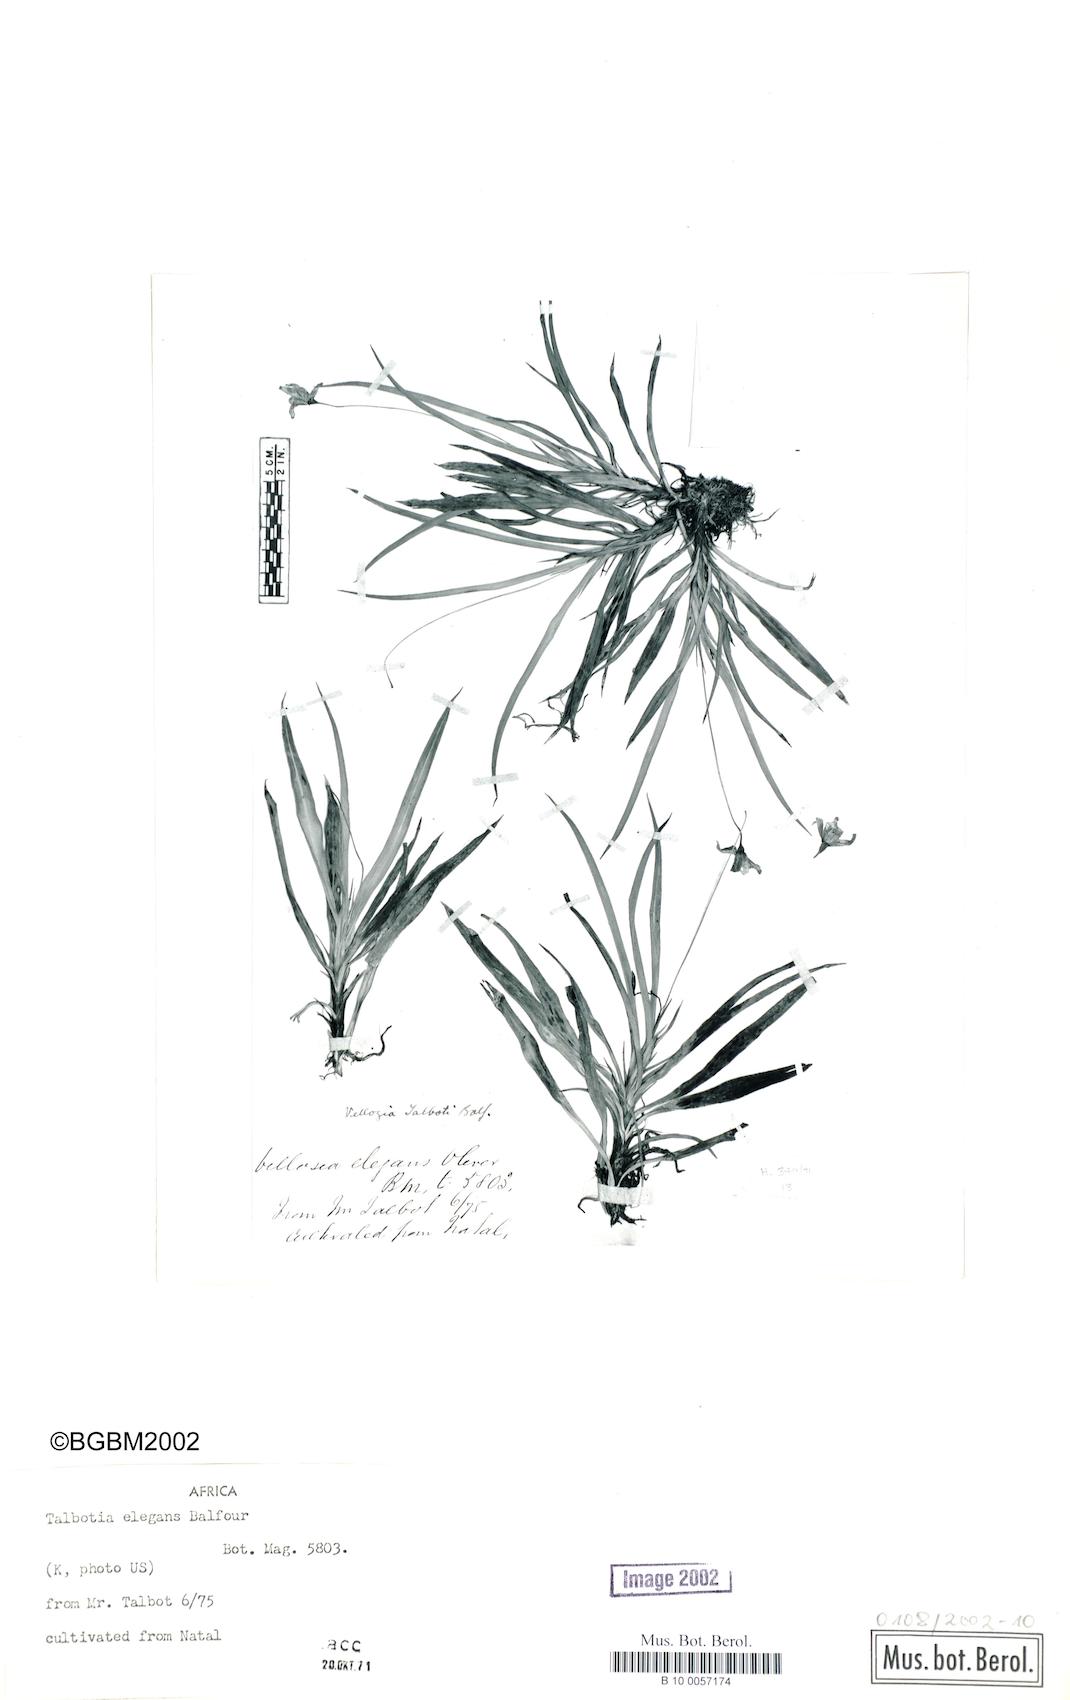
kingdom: Plantae
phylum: Tracheophyta
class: Liliopsida
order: Pandanales
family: Velloziaceae
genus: Xerophyta
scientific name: Xerophyta elegans
